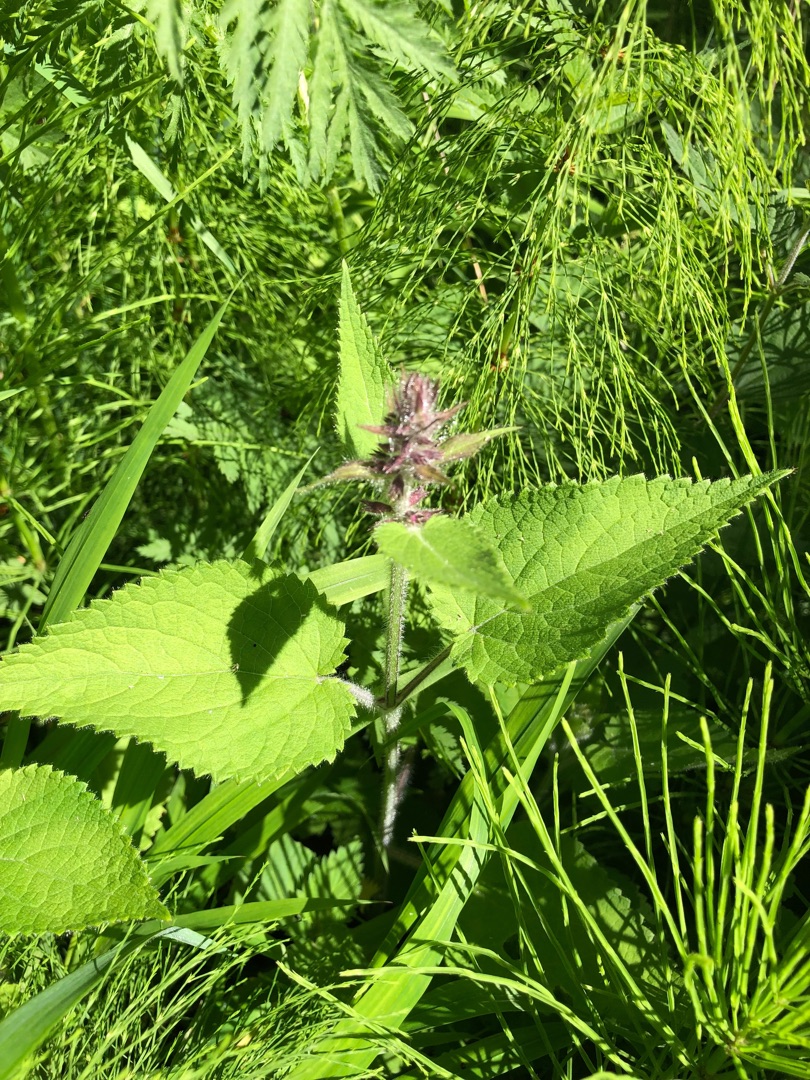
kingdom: Plantae
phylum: Tracheophyta
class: Magnoliopsida
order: Lamiales
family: Lamiaceae
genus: Stachys
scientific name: Stachys sylvatica
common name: Skov-galtetand
